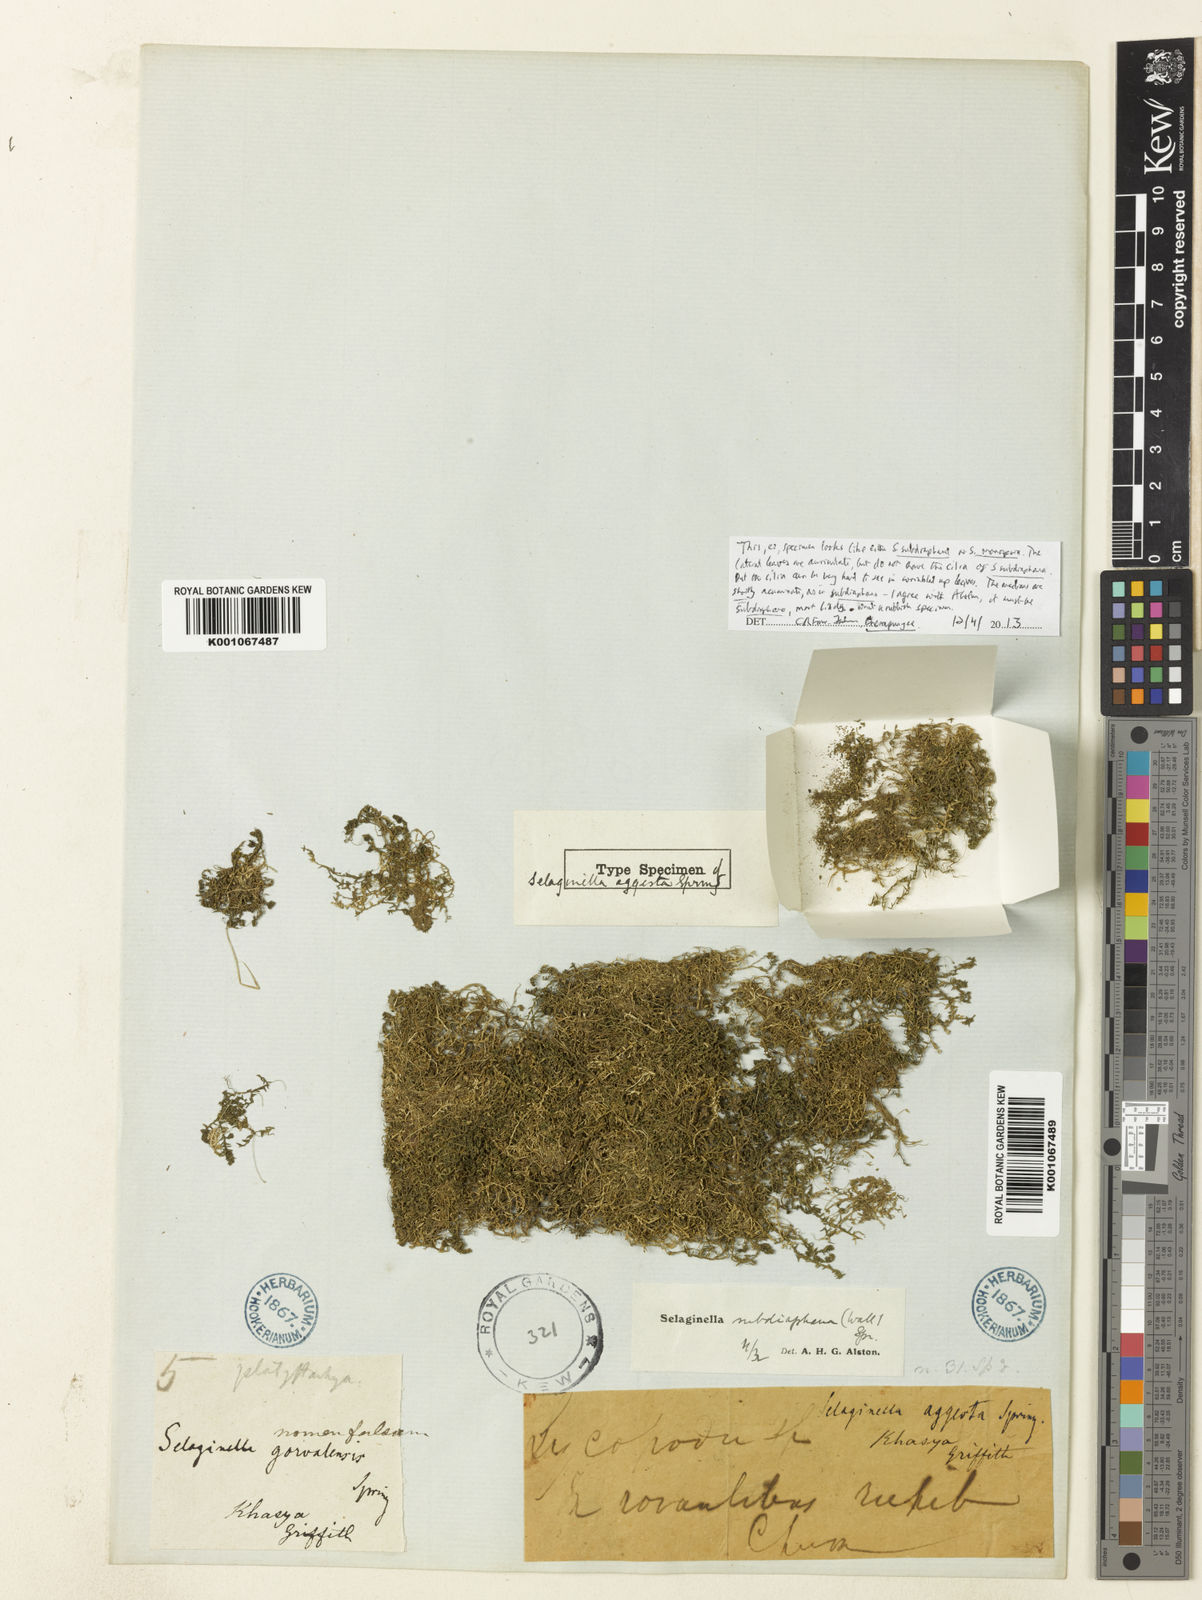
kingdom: Plantae
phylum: Tracheophyta
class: Lycopodiopsida
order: Selaginellales
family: Selaginellaceae
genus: Selaginella
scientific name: Selaginella subdiaphana
